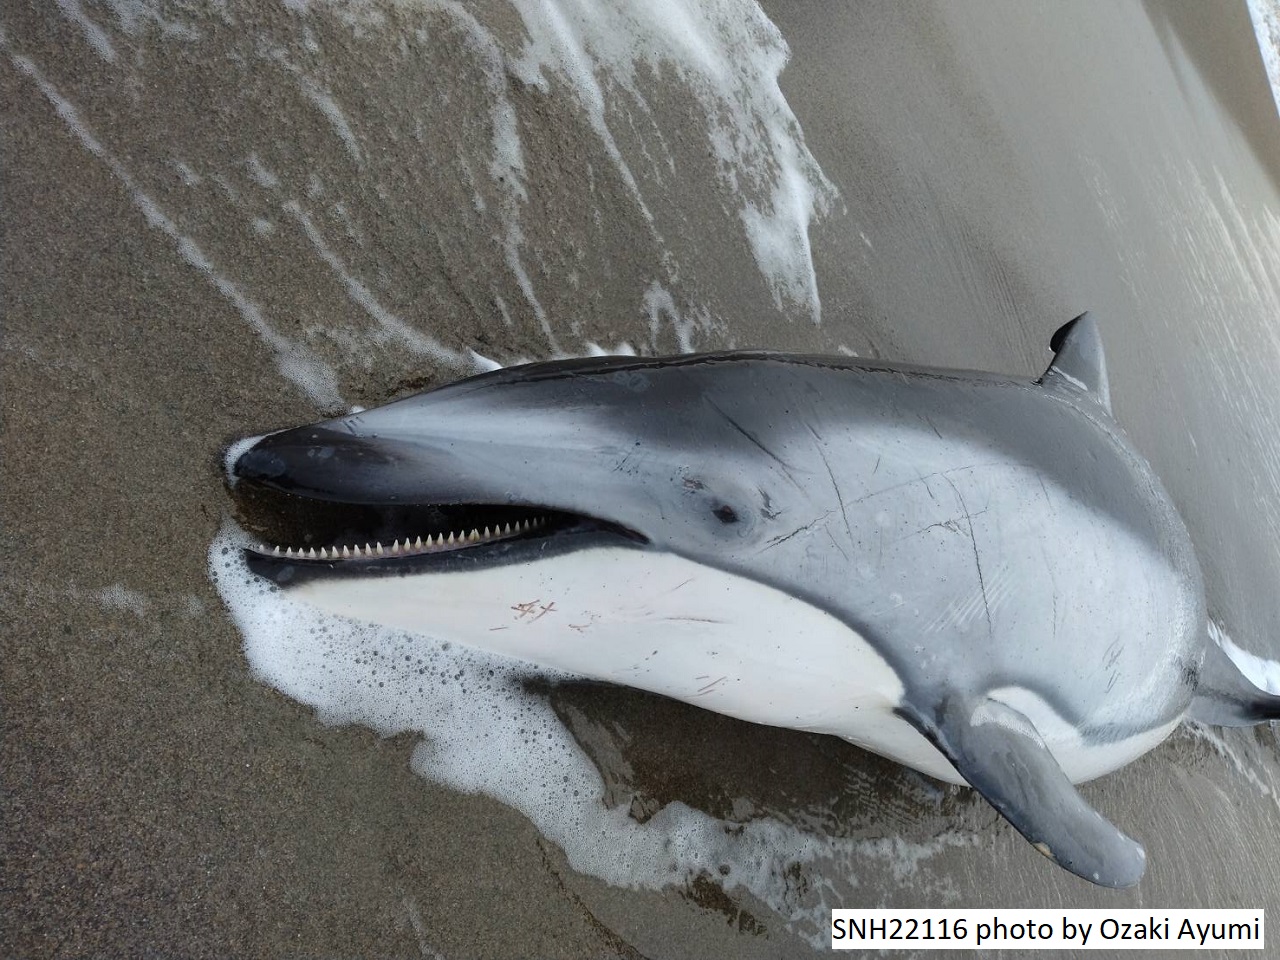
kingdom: Animalia
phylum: Chordata
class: Mammalia
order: Cetacea
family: Delphinidae
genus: Lagenorhynchus
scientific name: Lagenorhynchus obliquidens
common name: Pacific white-sided dolphin
